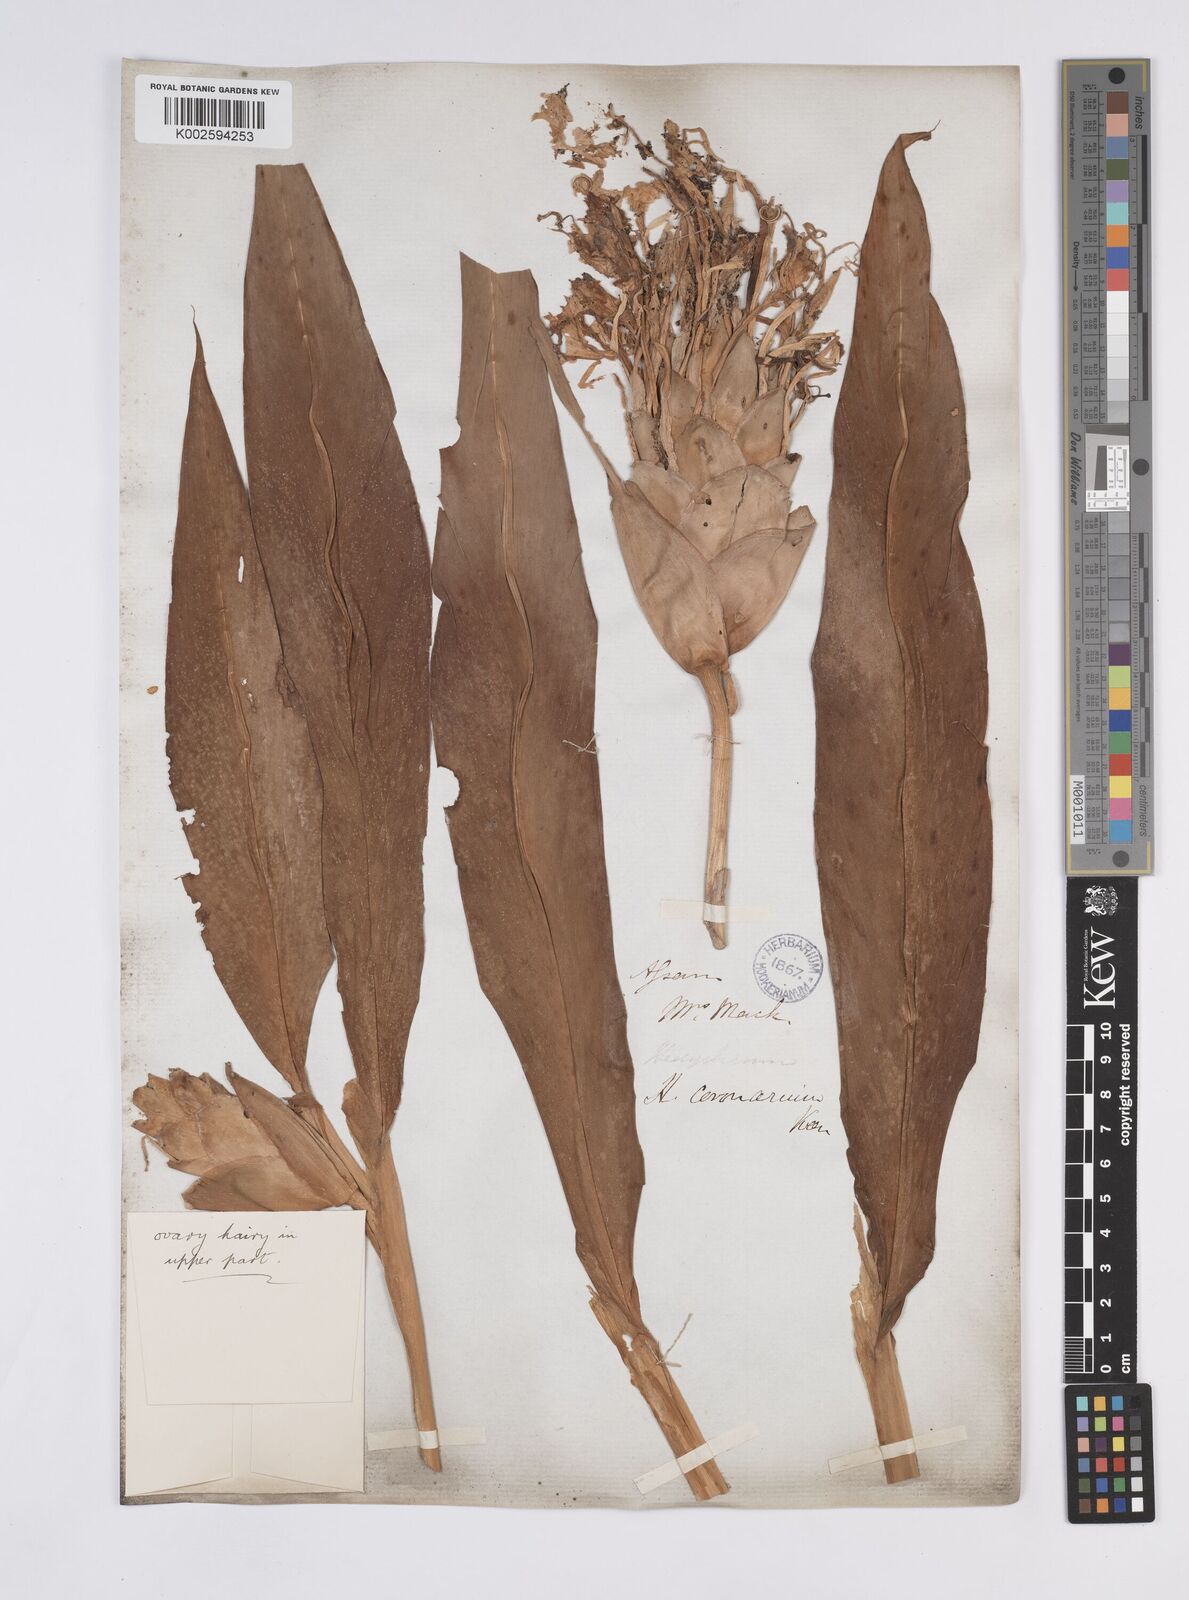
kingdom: Plantae
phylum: Tracheophyta
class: Liliopsida
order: Zingiberales
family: Zingiberaceae
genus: Hedychium
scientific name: Hedychium coronarium
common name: White garland-lily
